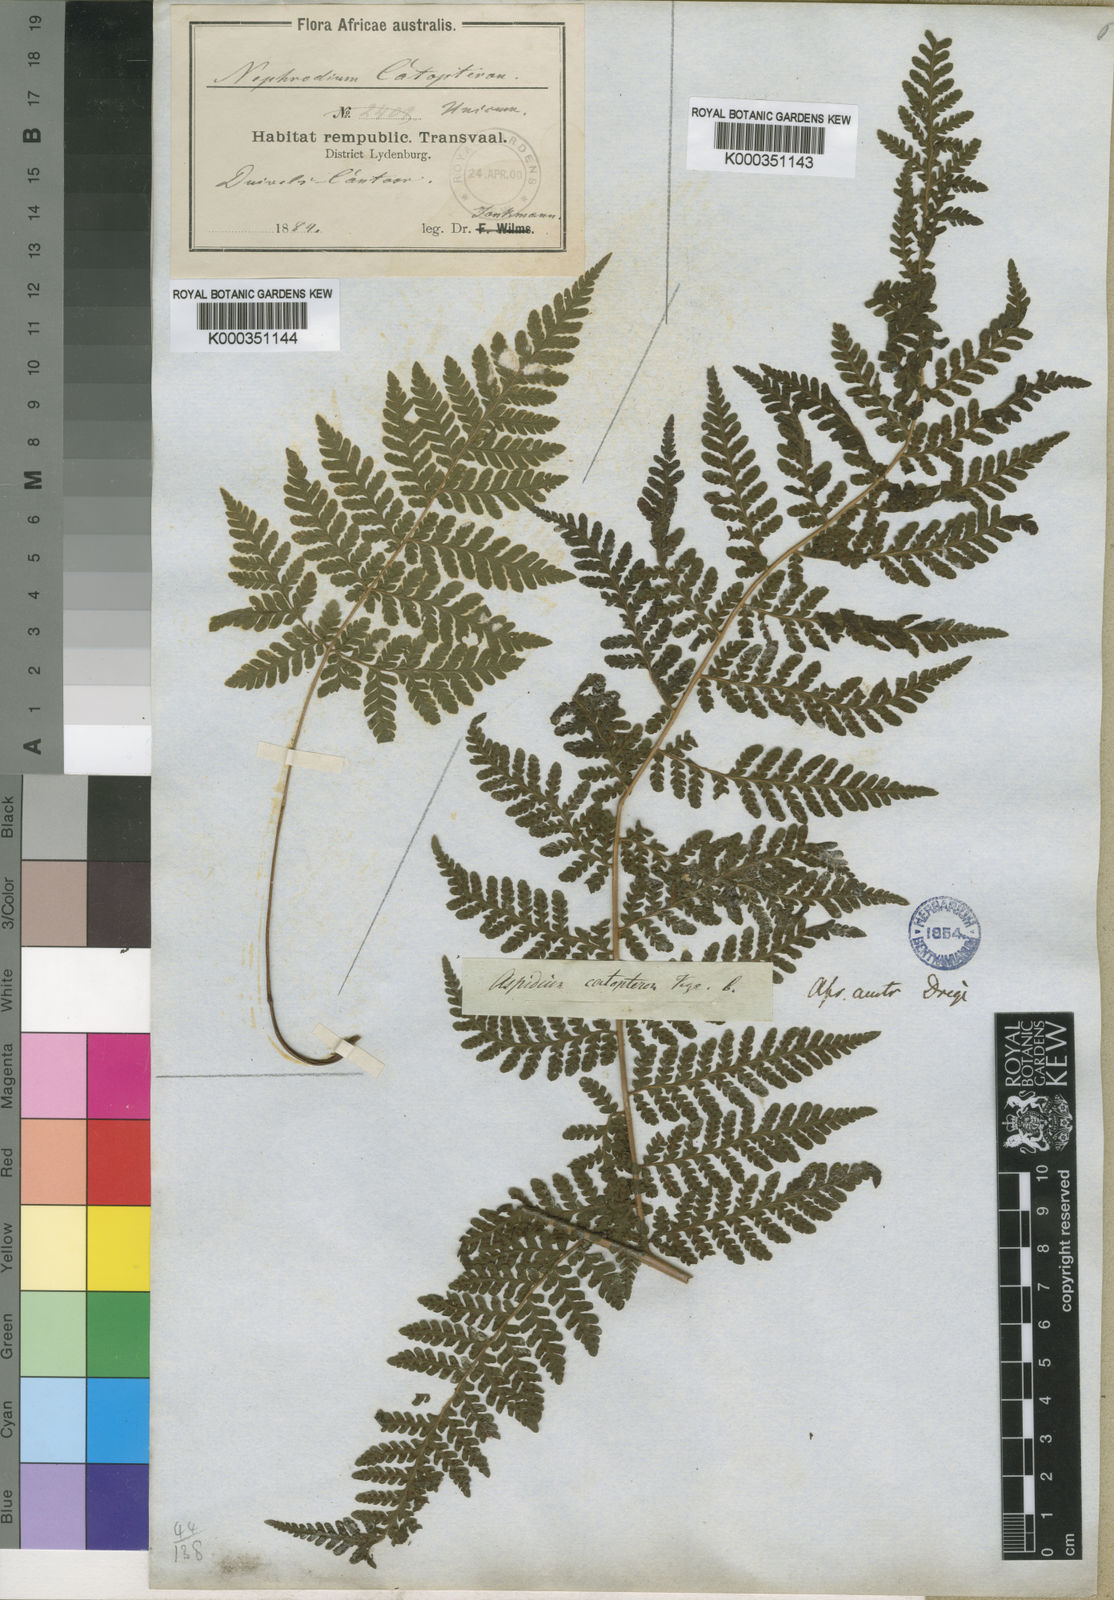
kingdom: Plantae
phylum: Tracheophyta
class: Polypodiopsida
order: Polypodiales
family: Dryopteridaceae
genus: Megalastrum
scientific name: Megalastrum lanuginosum
